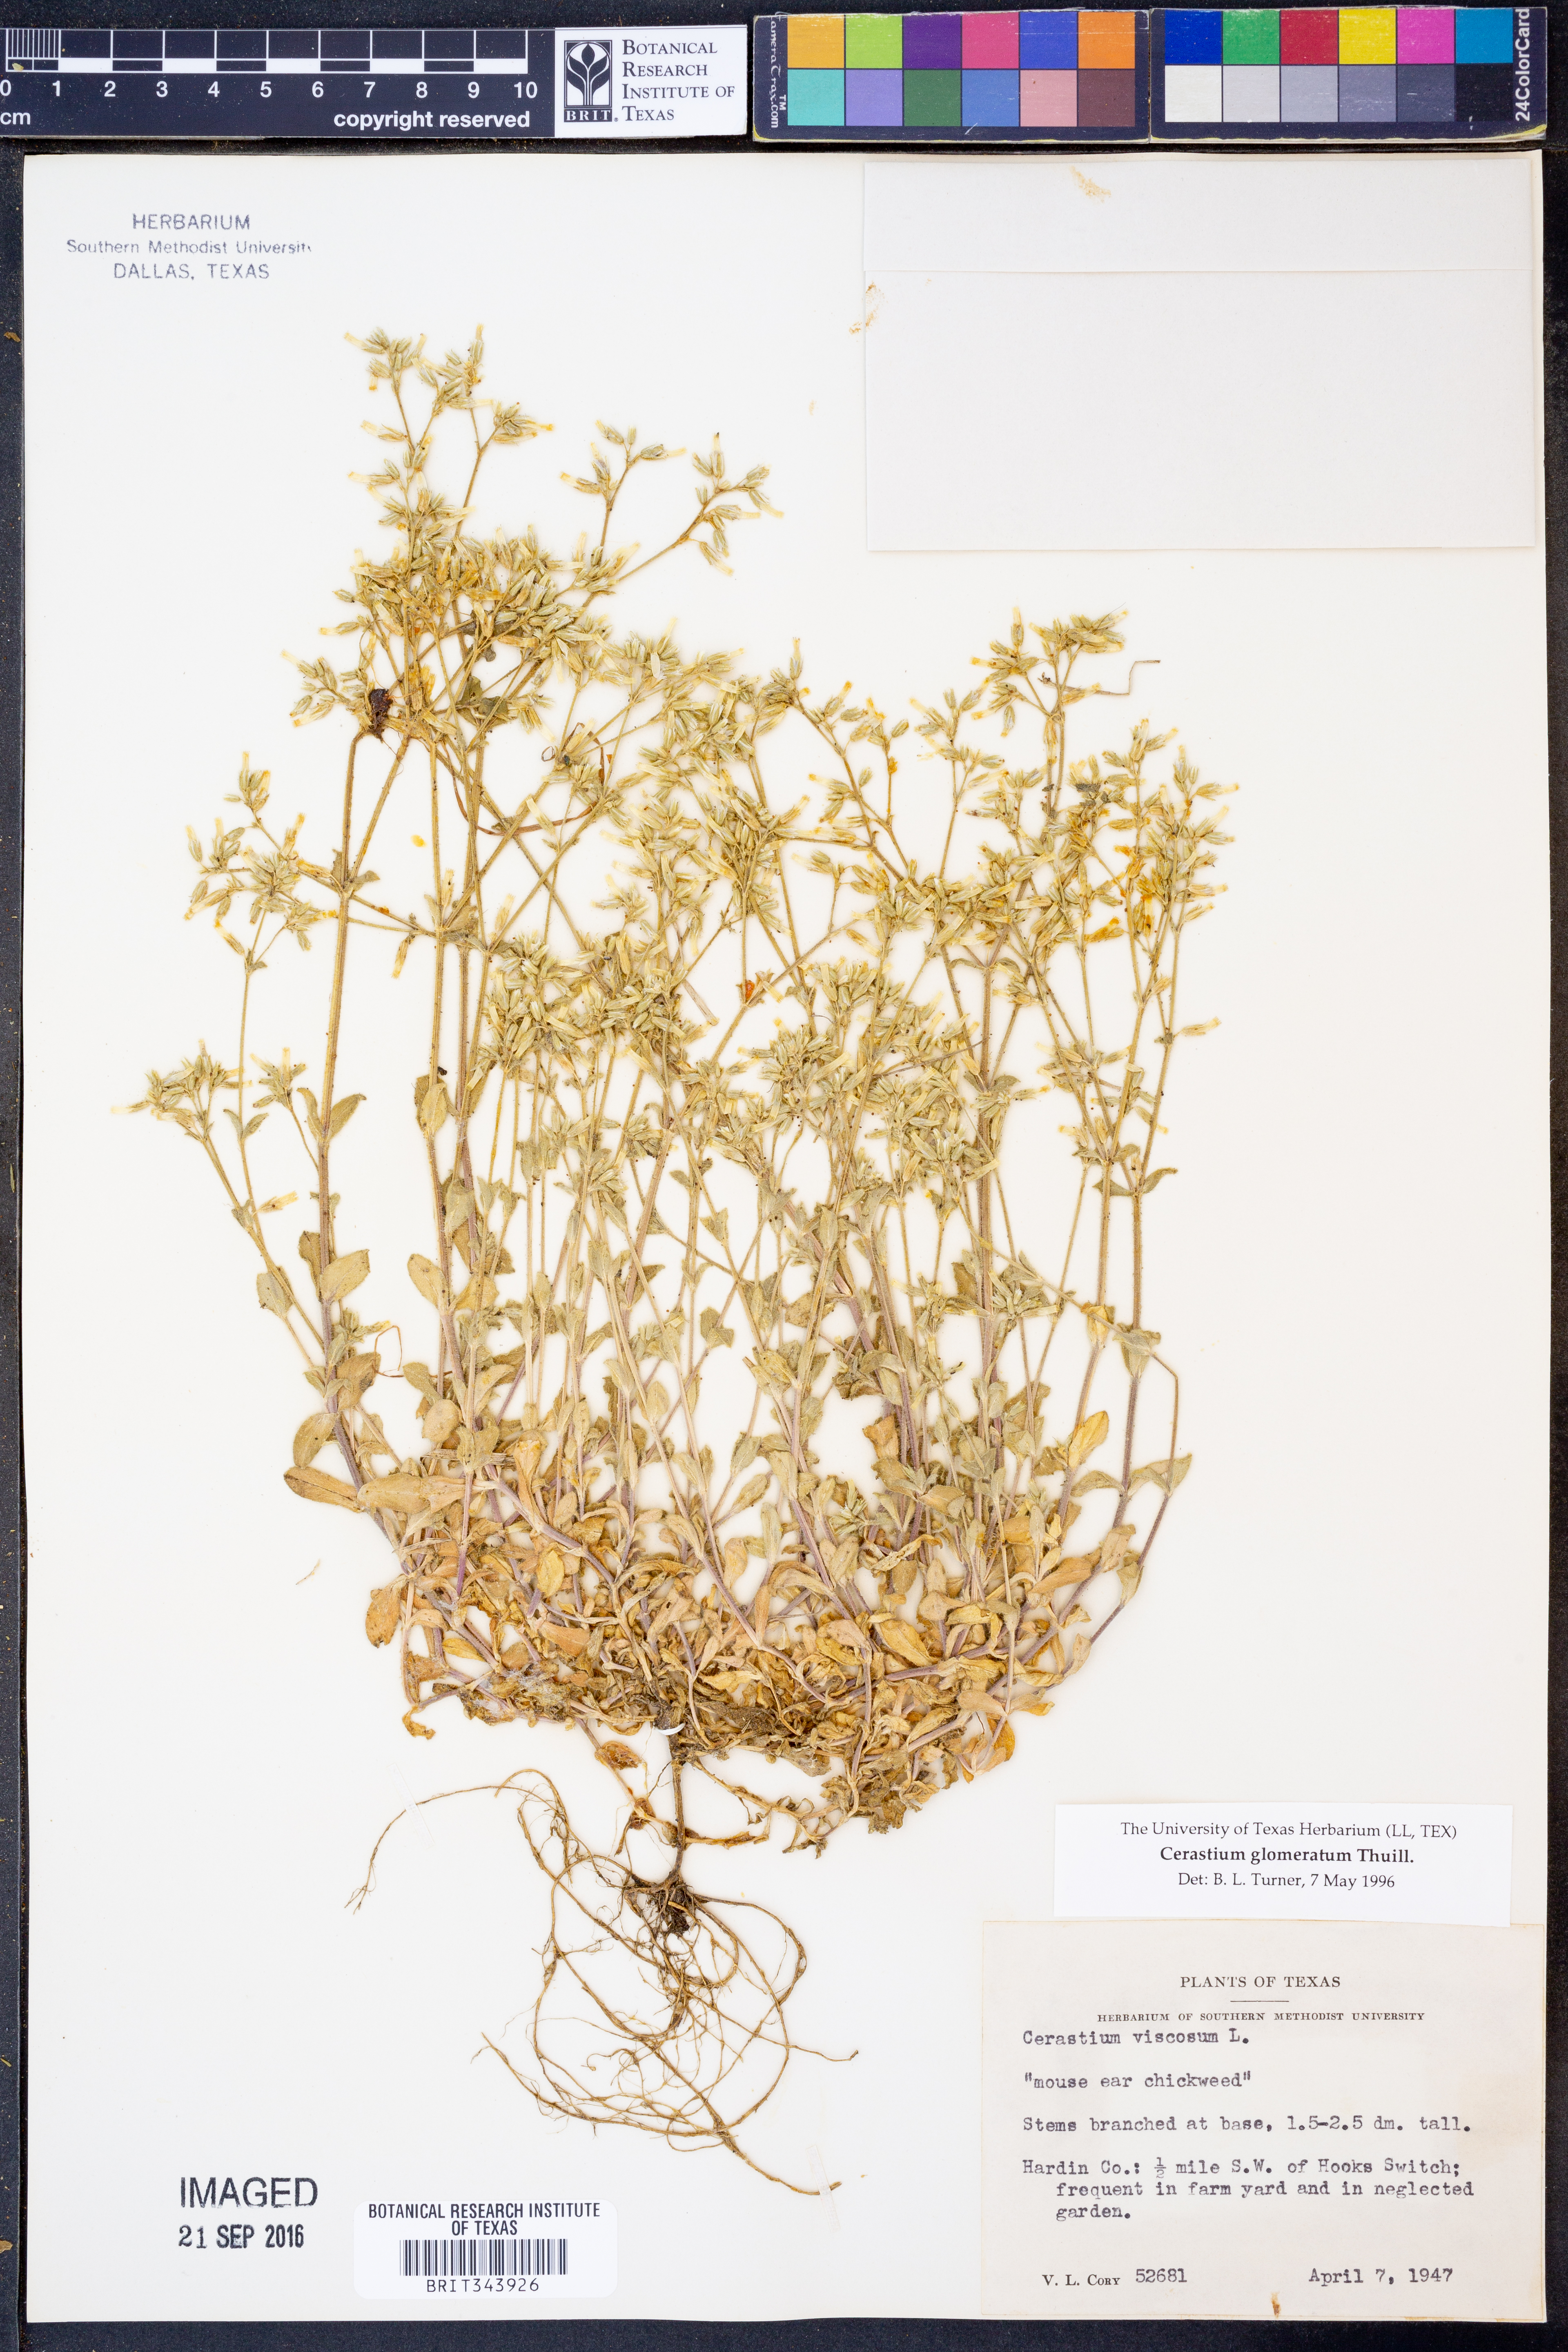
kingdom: Plantae
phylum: Tracheophyta
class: Magnoliopsida
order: Caryophyllales
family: Caryophyllaceae
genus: Cerastium
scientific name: Cerastium glomeratum
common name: Sticky chickweed
